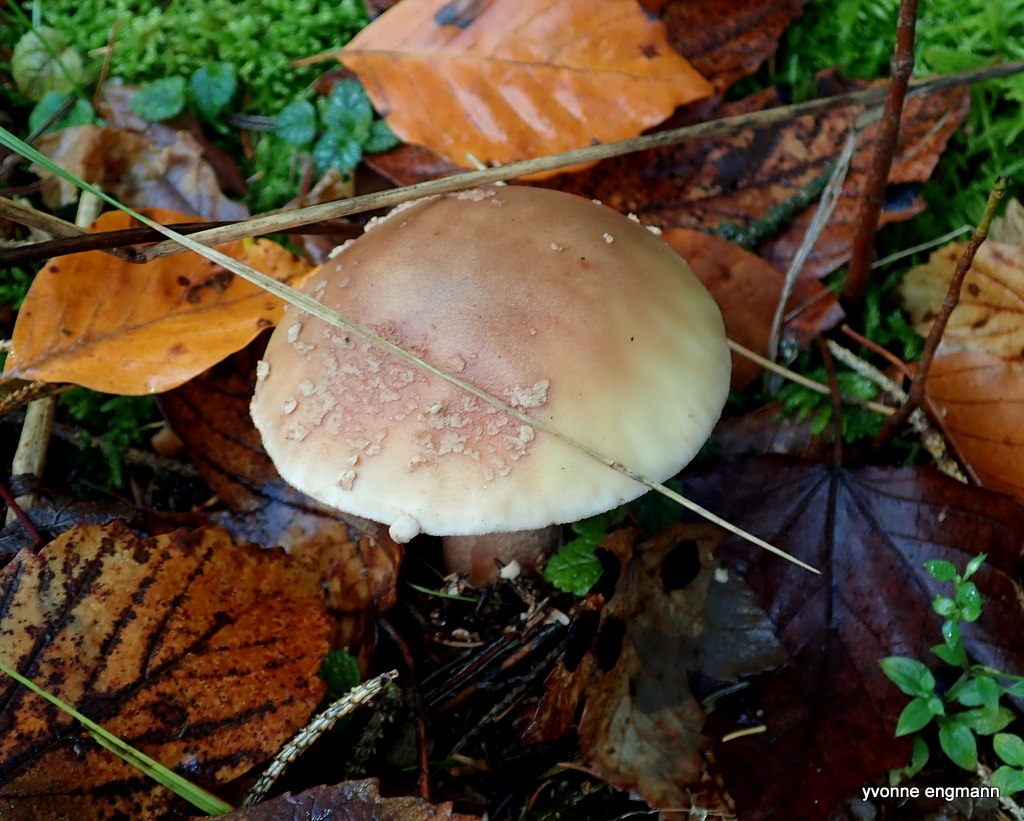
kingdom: Fungi
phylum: Basidiomycota
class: Agaricomycetes
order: Agaricales
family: Amanitaceae
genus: Amanita
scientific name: Amanita rubescens
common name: rødmende fluesvamp
